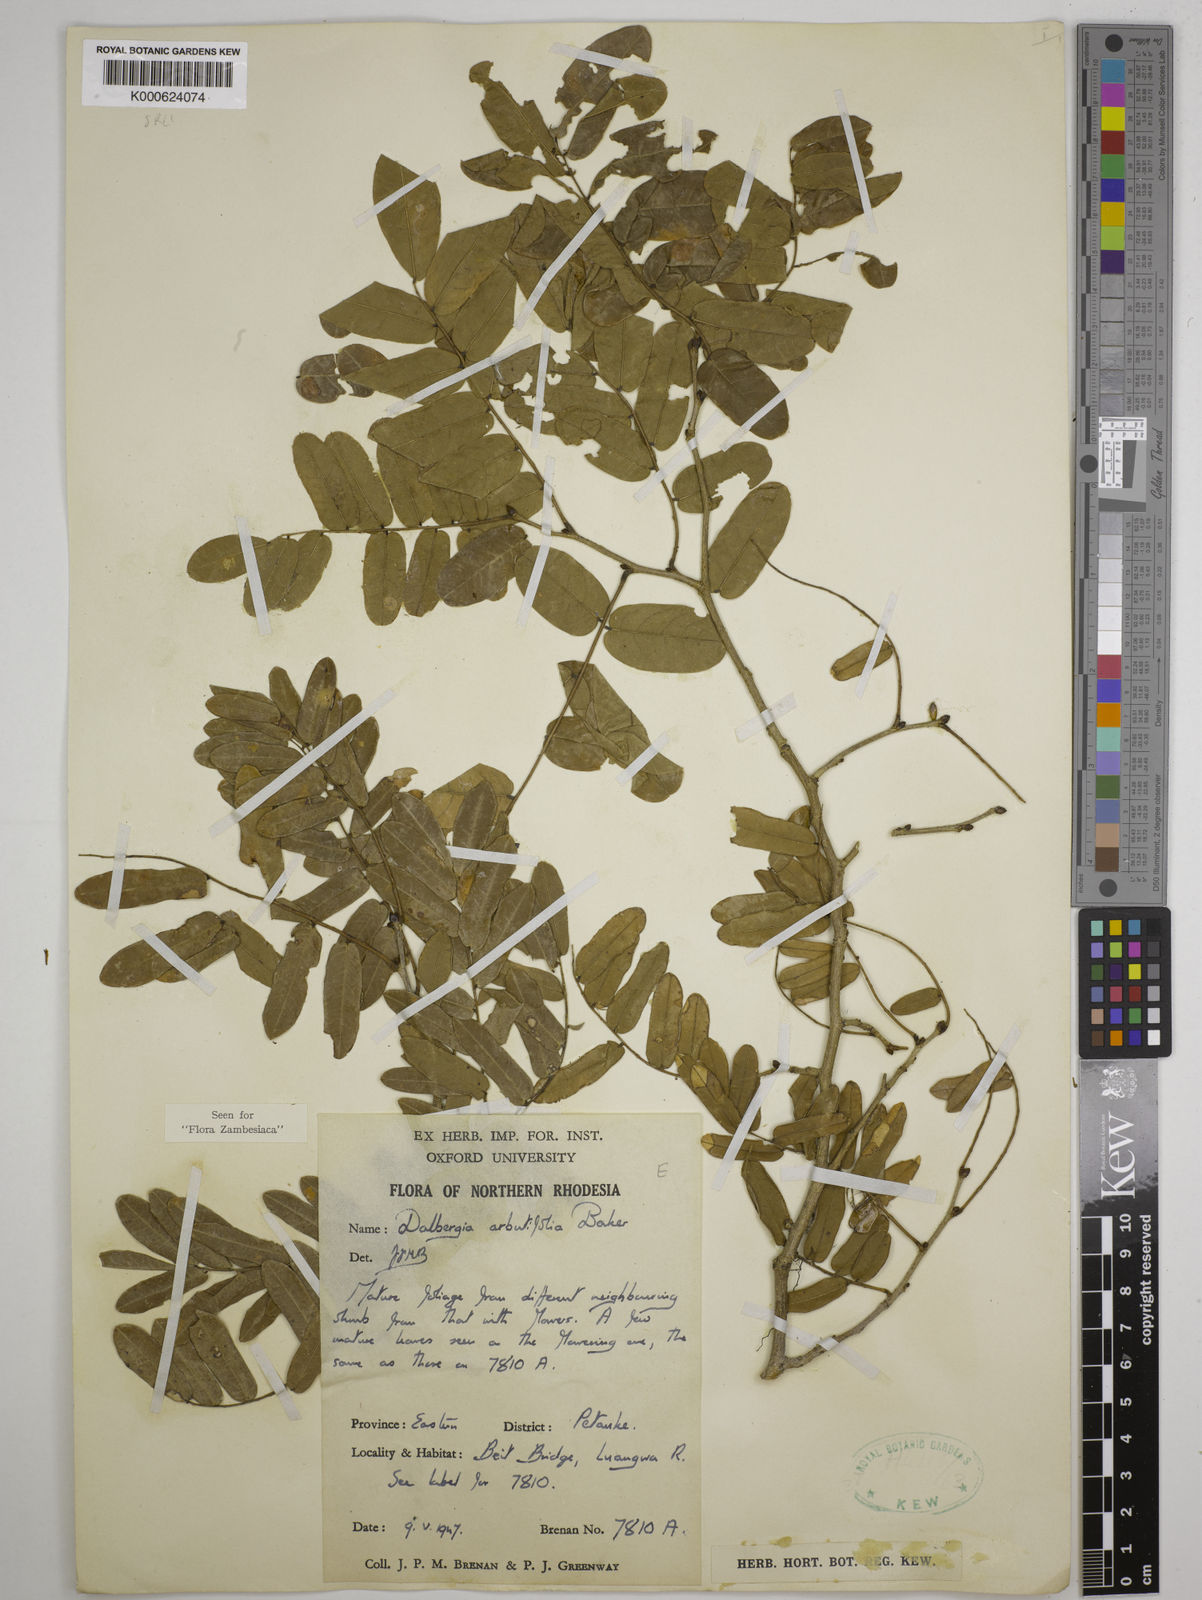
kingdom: Plantae
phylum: Tracheophyta
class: Magnoliopsida
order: Fabales
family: Fabaceae
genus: Dalbergia
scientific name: Dalbergia arbutifolia
